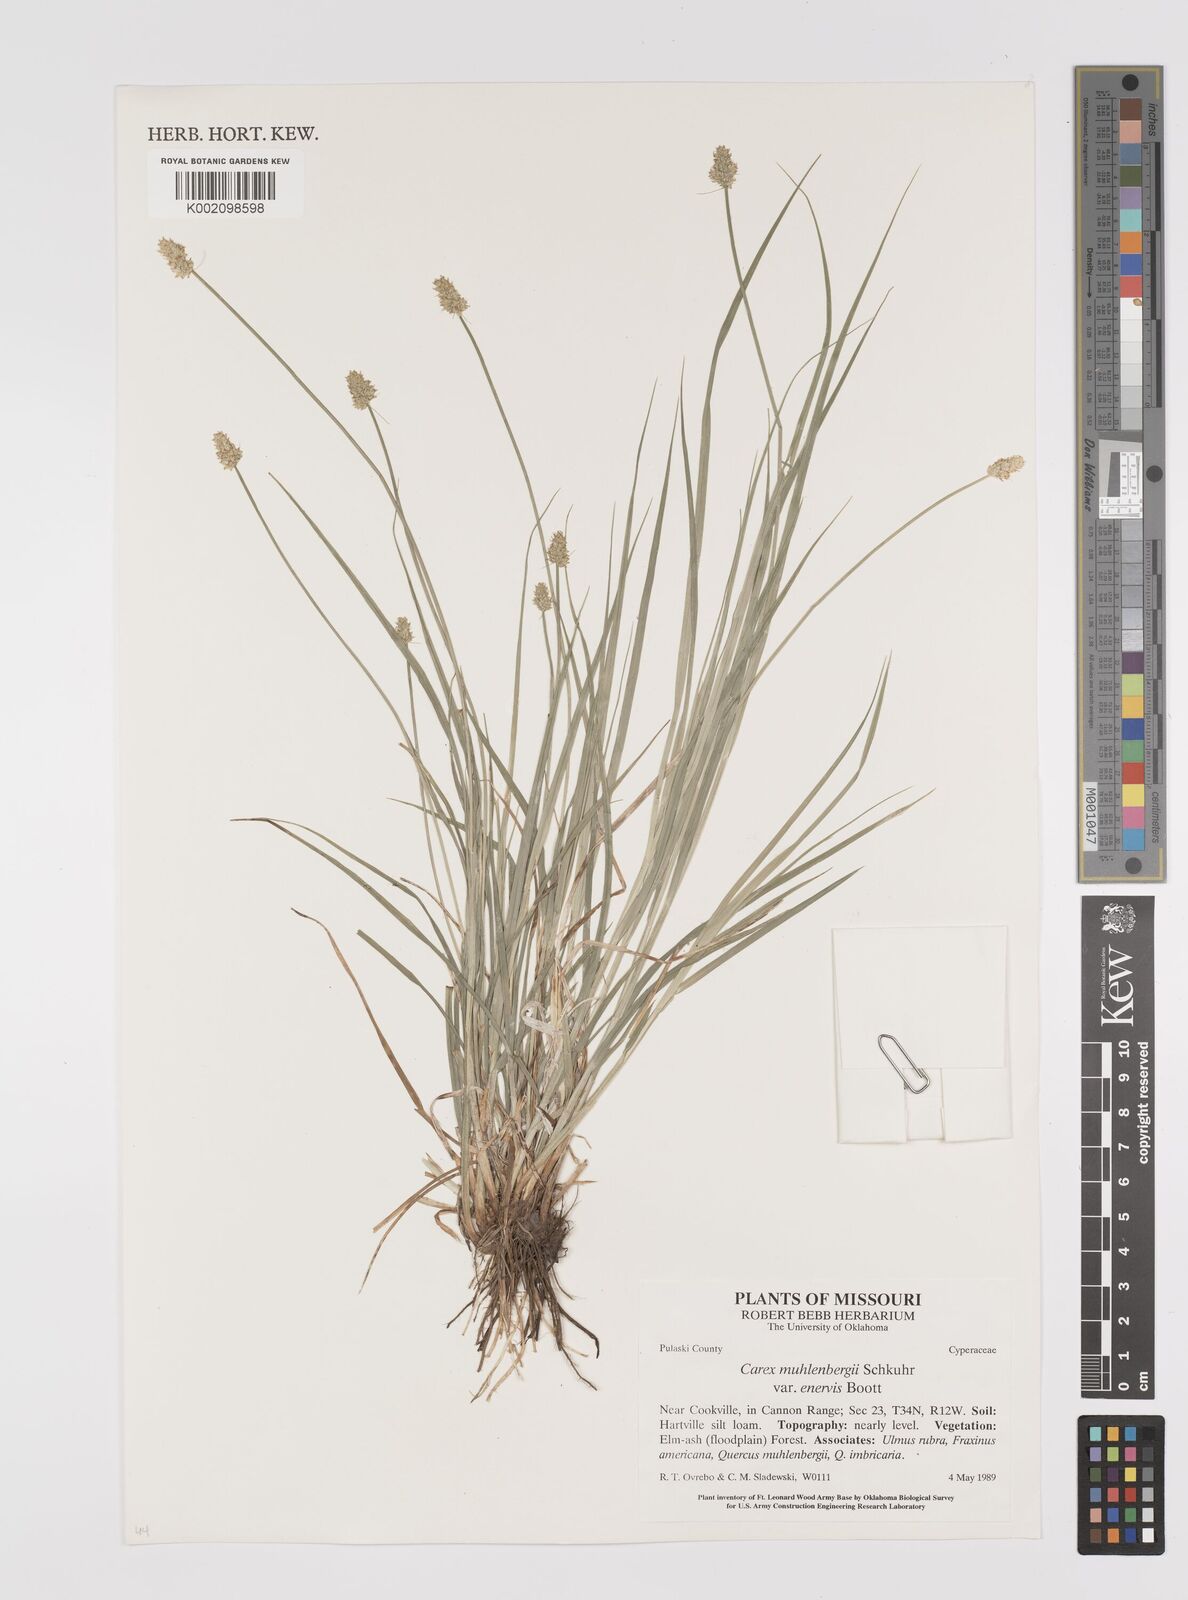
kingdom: Plantae
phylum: Tracheophyta
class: Liliopsida
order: Poales
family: Cyperaceae
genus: Carex
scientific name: Carex vulpinoidea
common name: American fox-sedge
